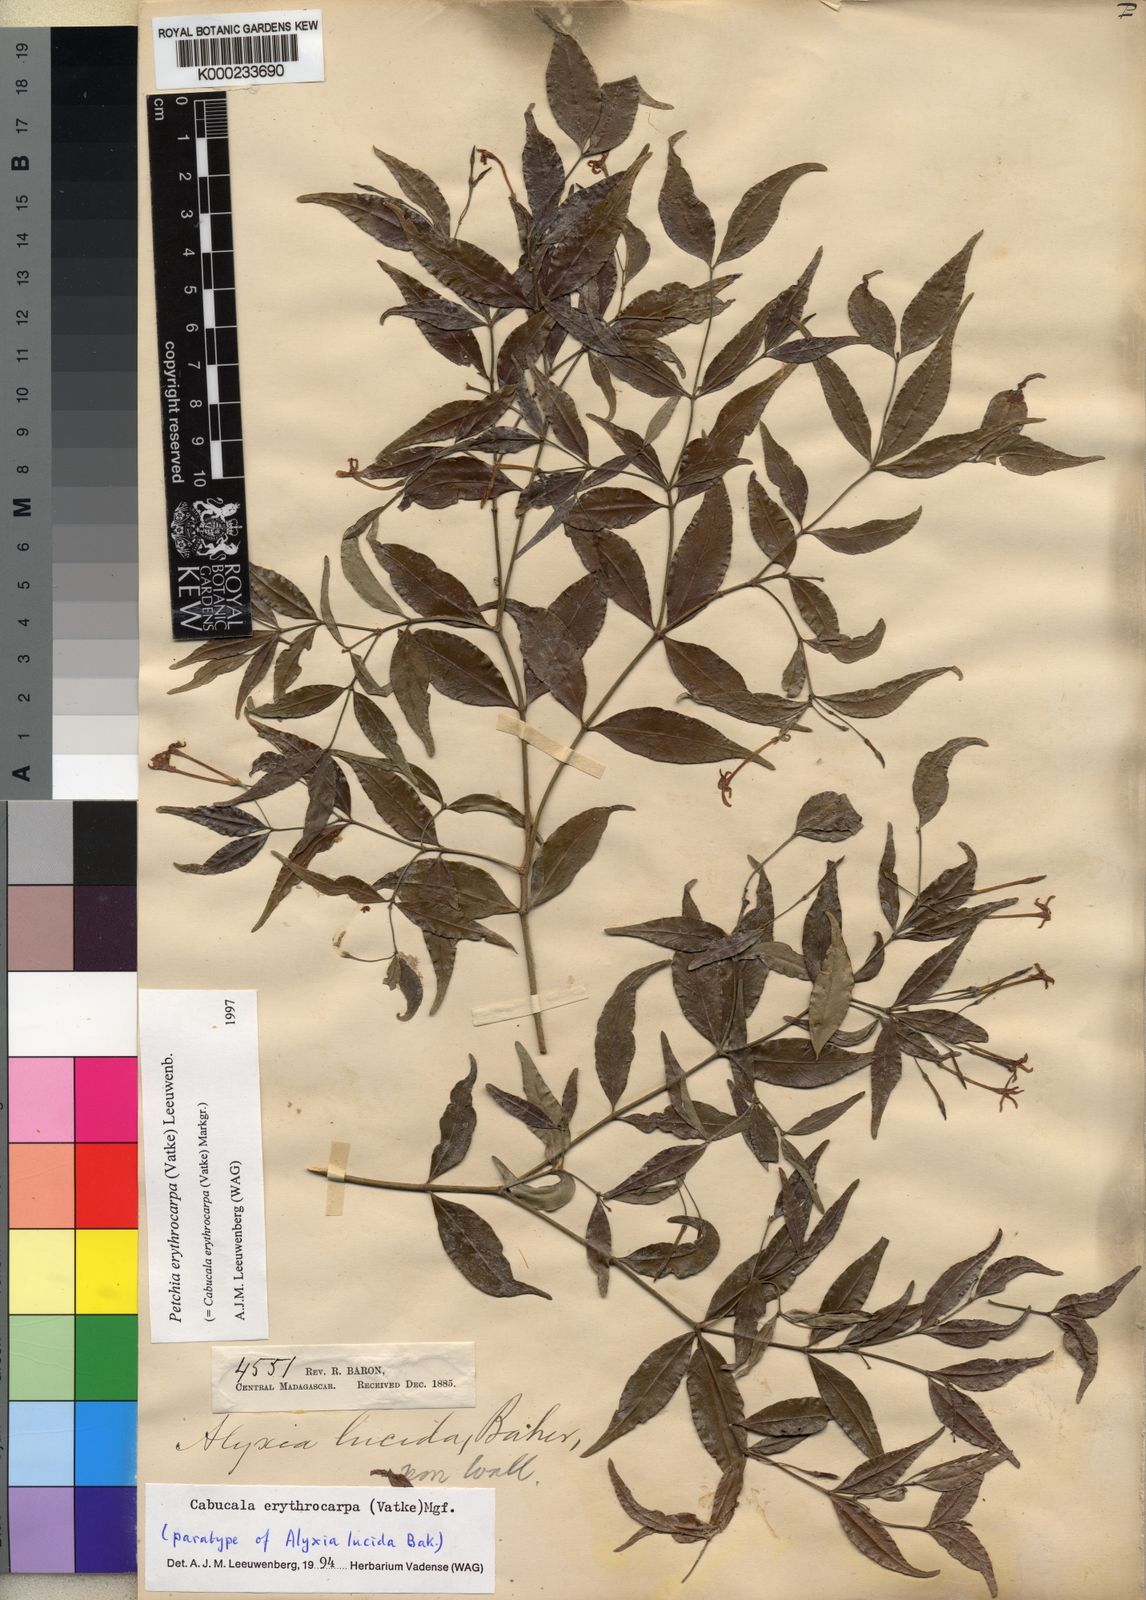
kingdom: Plantae
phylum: Tracheophyta
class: Magnoliopsida
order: Gentianales
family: Apocynaceae
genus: Petchia
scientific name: Petchia erythrocarpa
